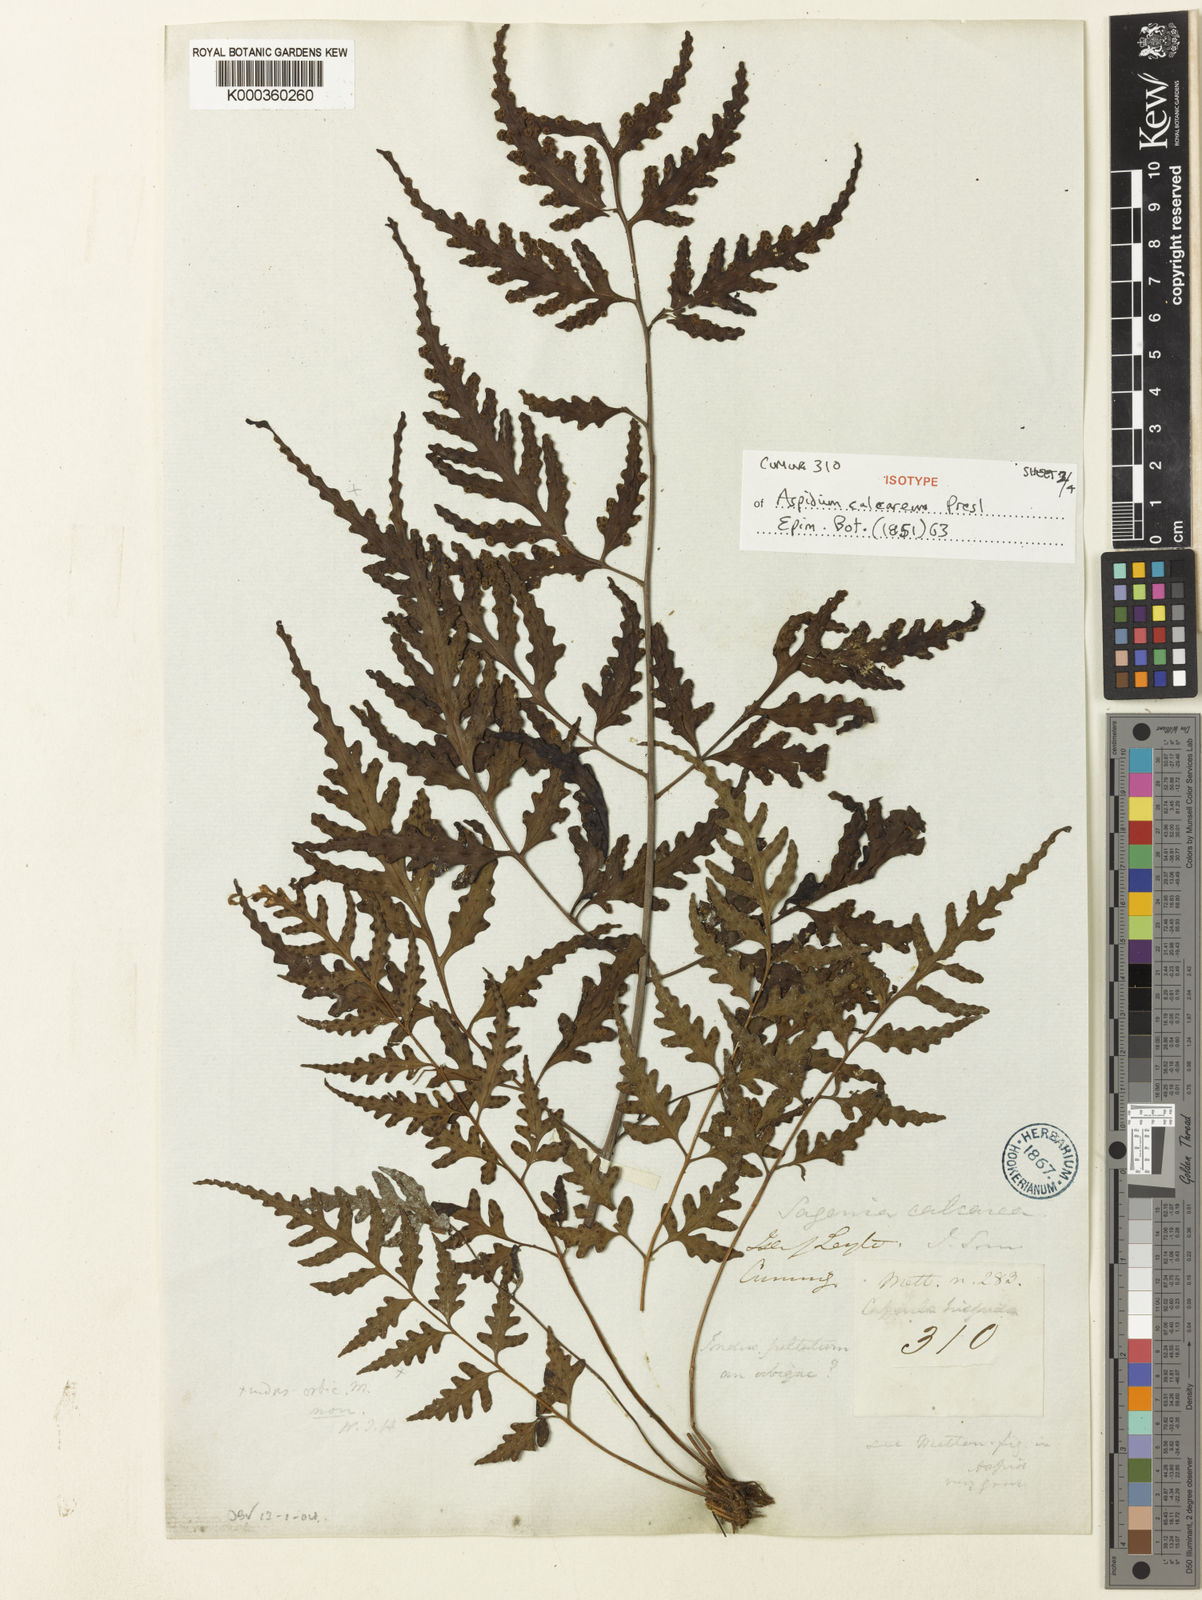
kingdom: Plantae
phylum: Tracheophyta
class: Polypodiopsida
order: Polypodiales
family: Tectariaceae
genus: Tectaria
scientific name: Tectaria calcarea
